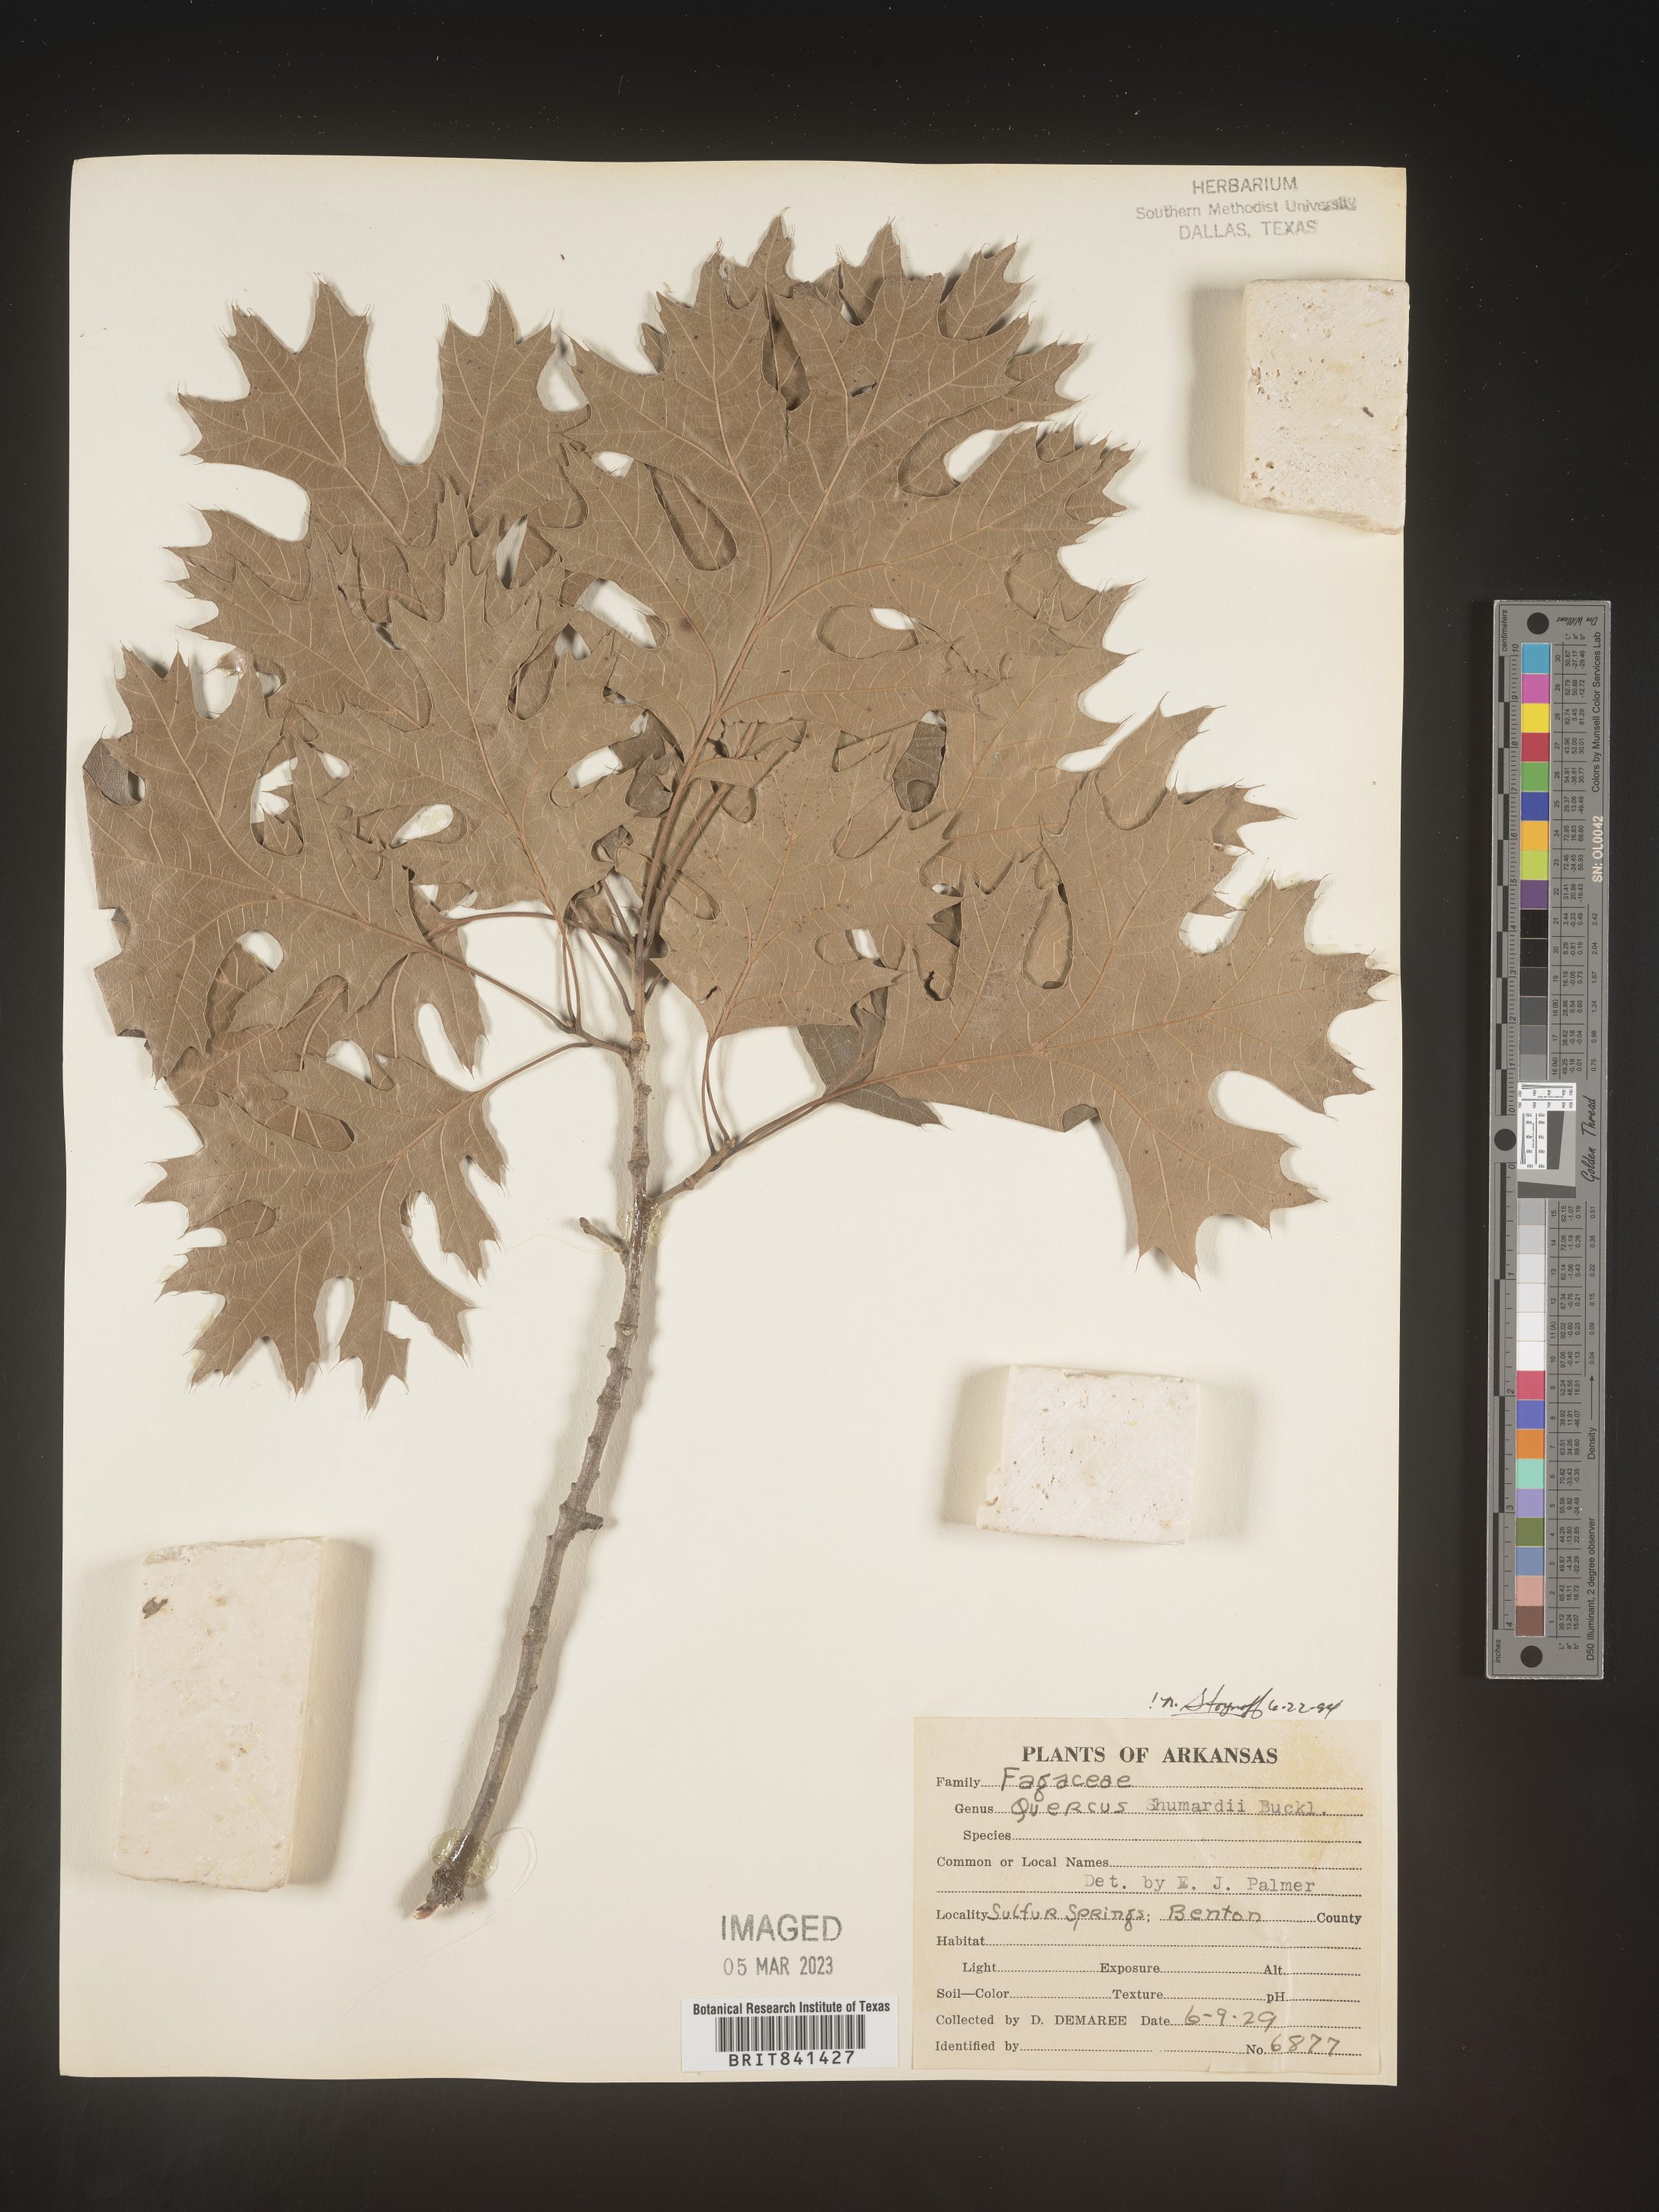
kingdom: Plantae
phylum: Tracheophyta
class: Magnoliopsida
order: Fagales
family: Fagaceae
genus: Quercus
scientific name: Quercus shumardii
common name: Shumard oak
